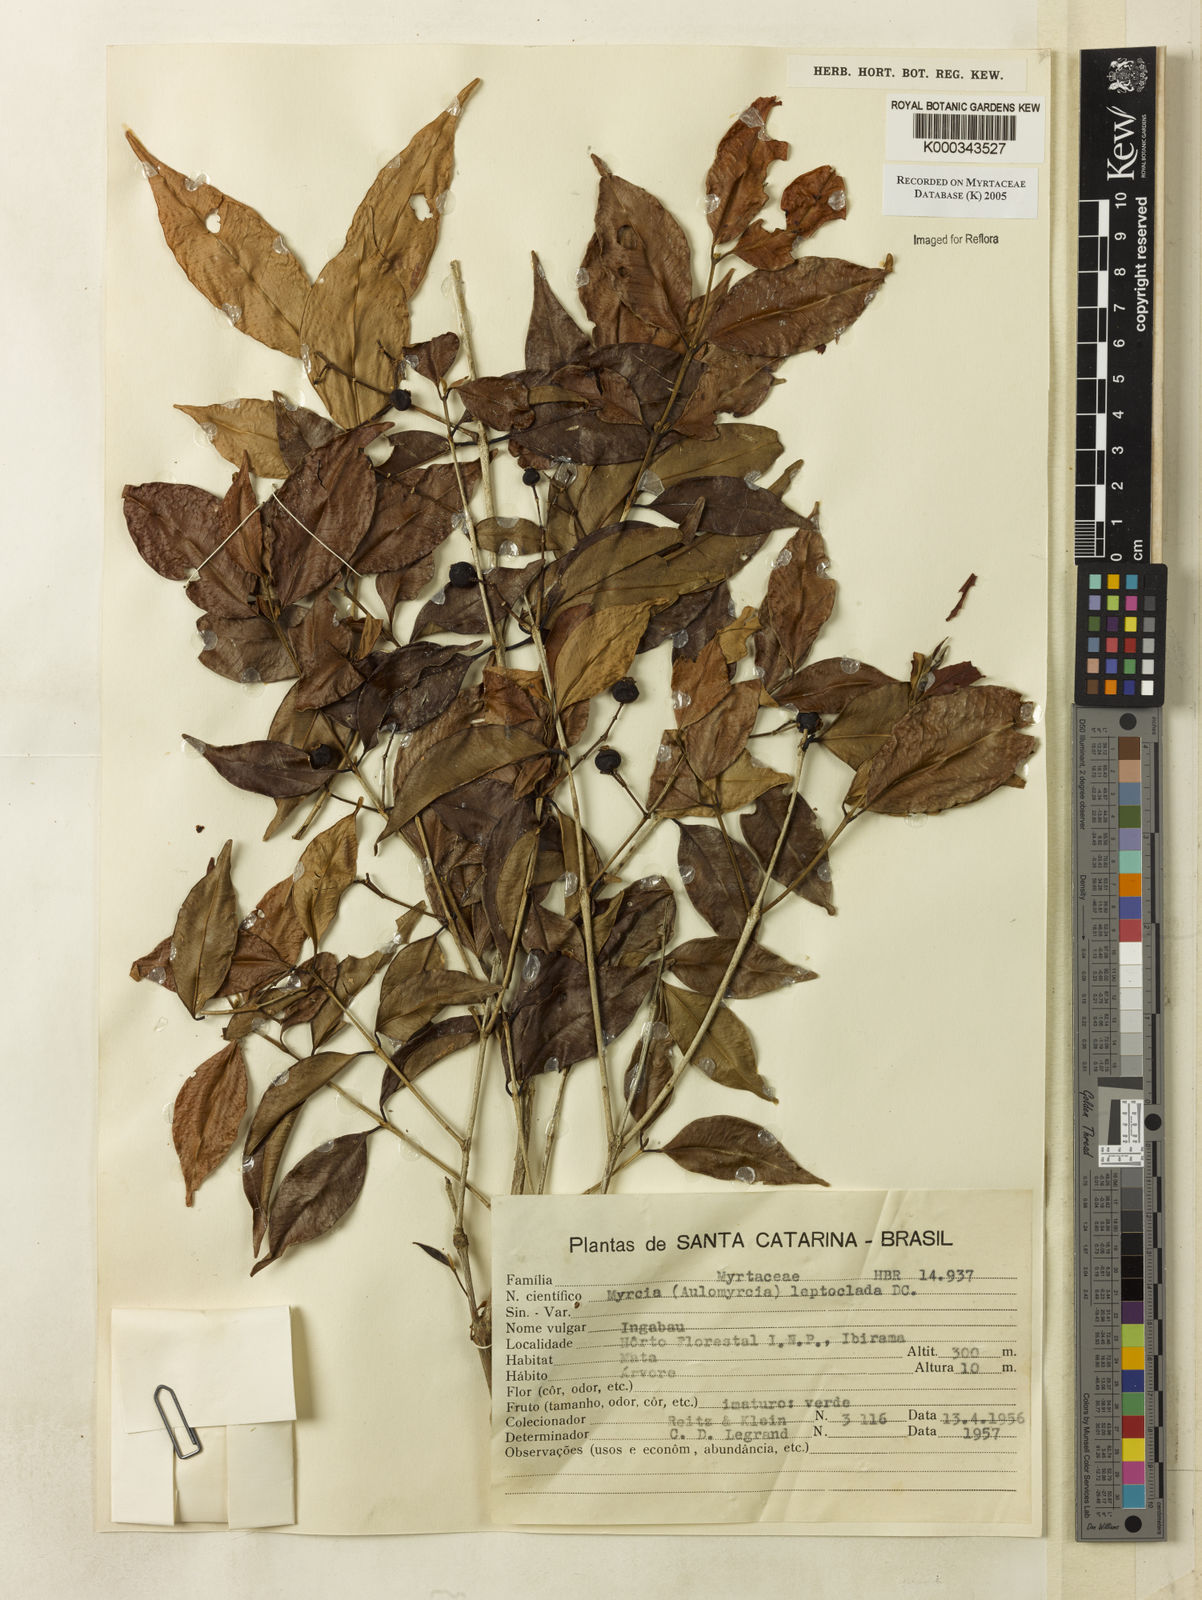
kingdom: Plantae
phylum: Tracheophyta
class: Magnoliopsida
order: Myrtales
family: Myrtaceae
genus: Myrcia
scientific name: Myrcia amazonica
